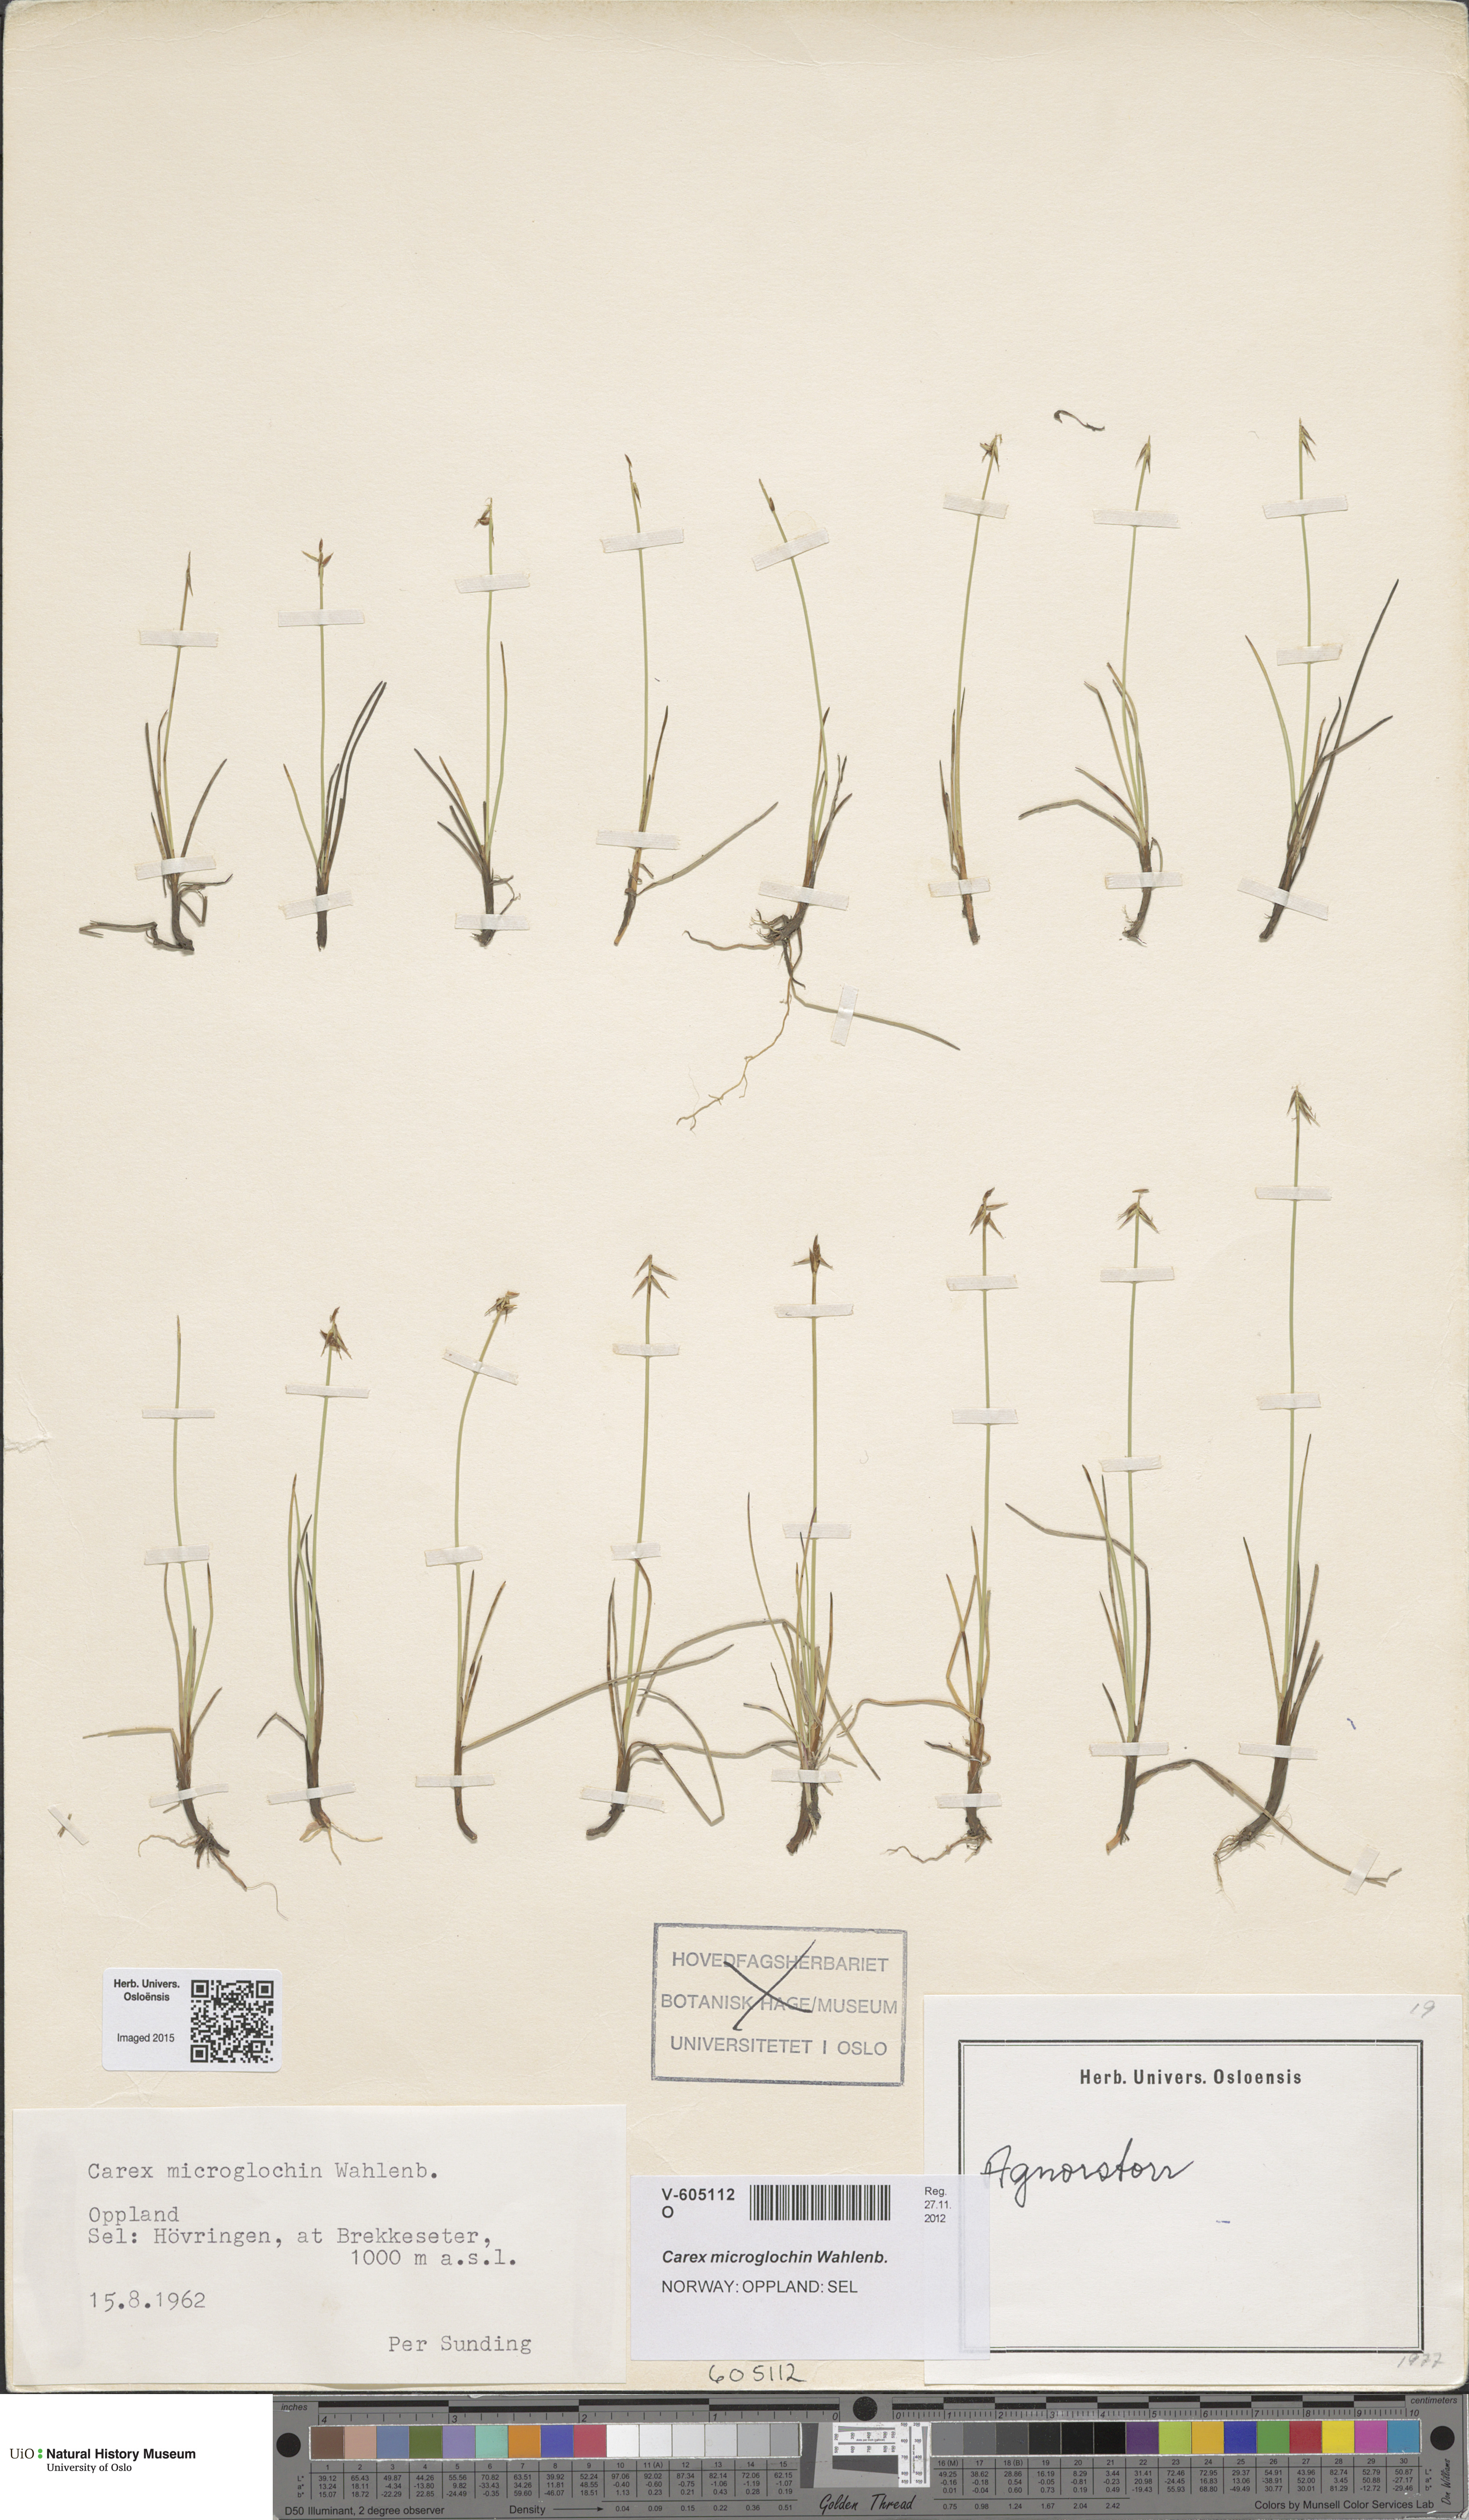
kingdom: Plantae
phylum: Tracheophyta
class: Liliopsida
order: Poales
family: Cyperaceae
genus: Carex
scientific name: Carex microglochin
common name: Bristle sedge
